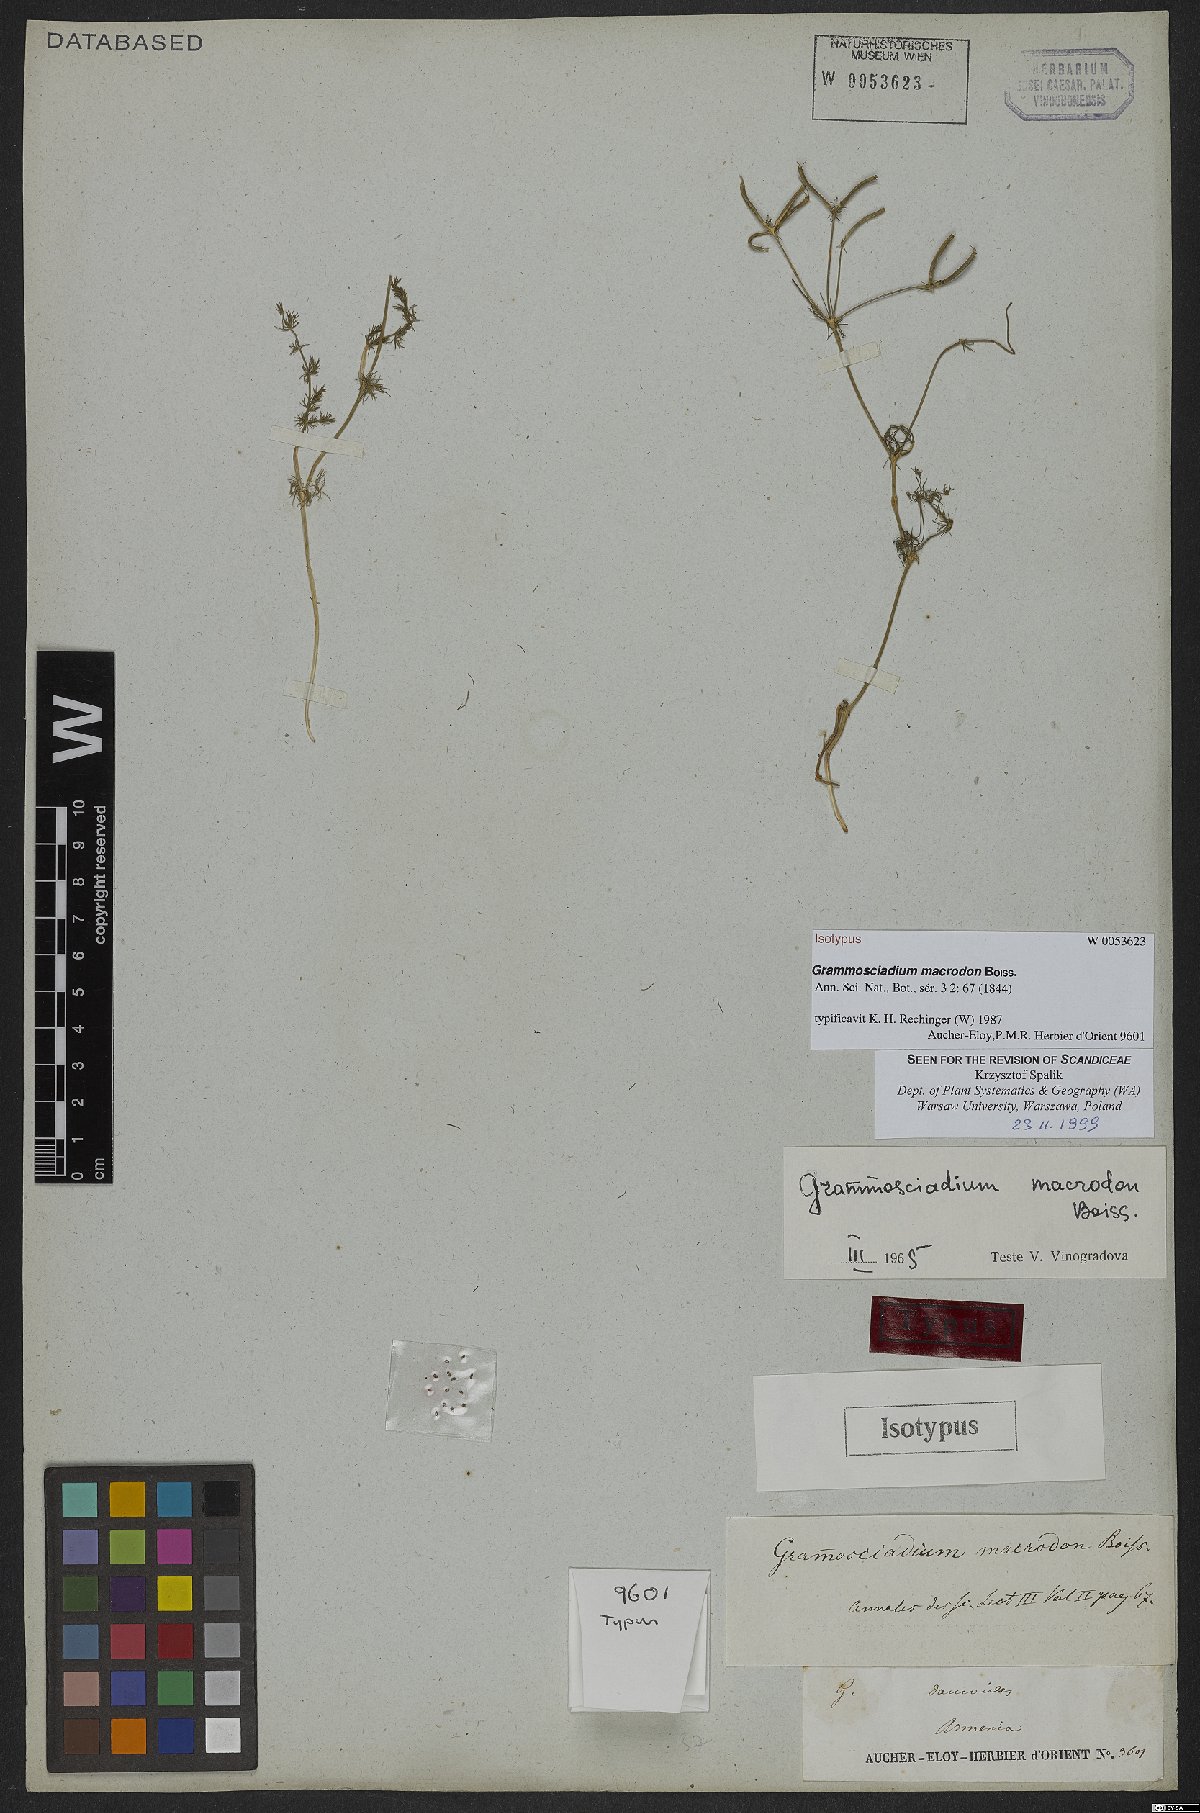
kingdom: Plantae
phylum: Tracheophyta
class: Magnoliopsida
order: Apiales
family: Apiaceae
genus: Grammosciadium
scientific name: Grammosciadium macrodon
